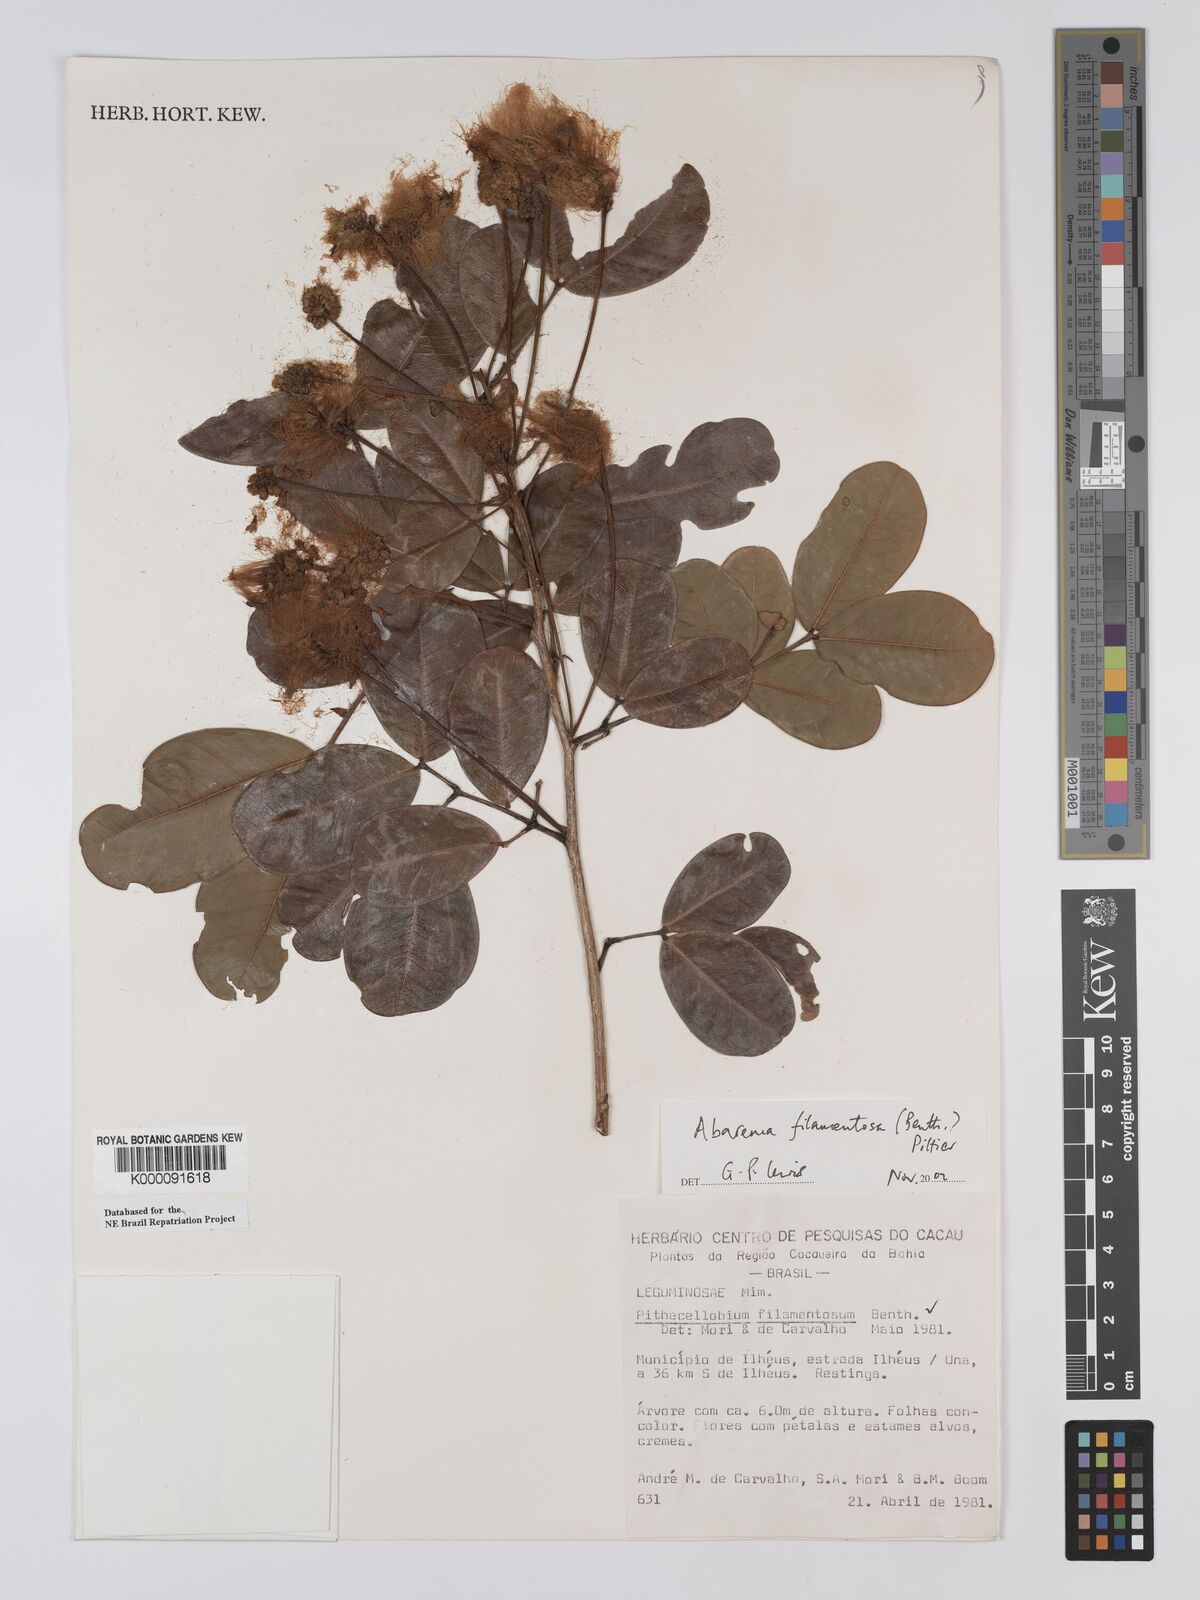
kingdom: Plantae
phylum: Tracheophyta
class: Magnoliopsida
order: Fabales
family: Fabaceae
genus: Jupunba
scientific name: Jupunba filamentosa
